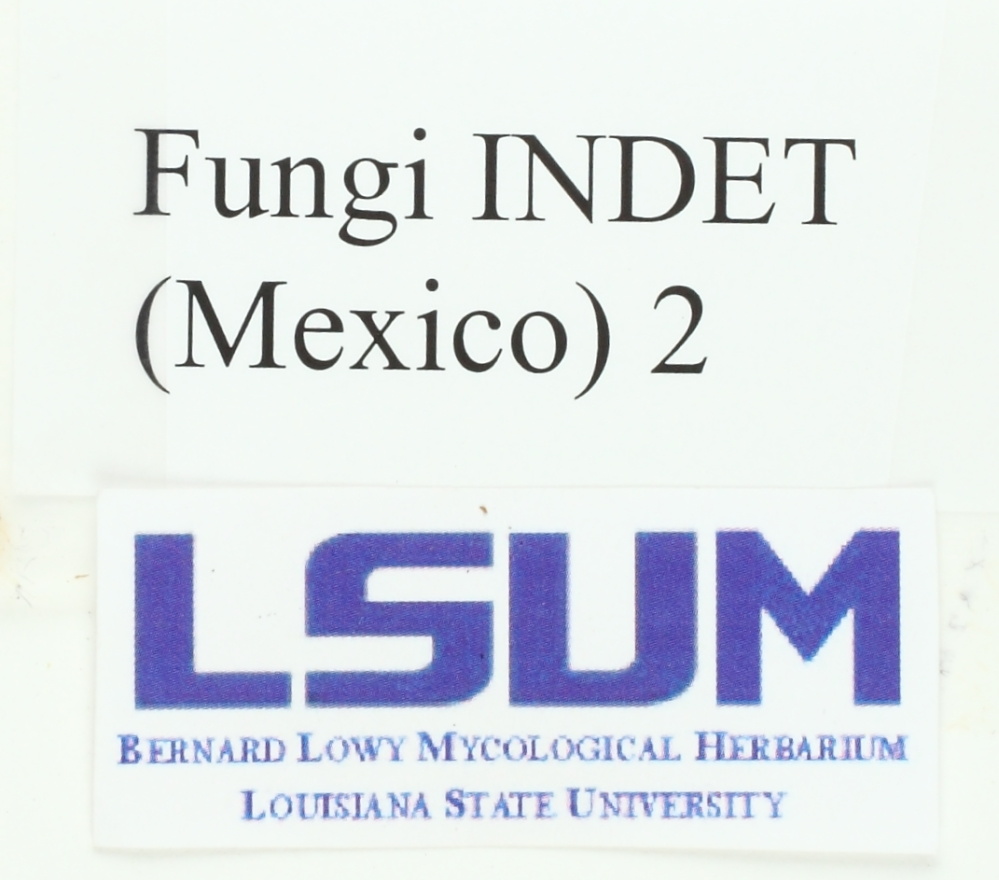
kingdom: Fungi
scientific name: Fungi
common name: Fungi
